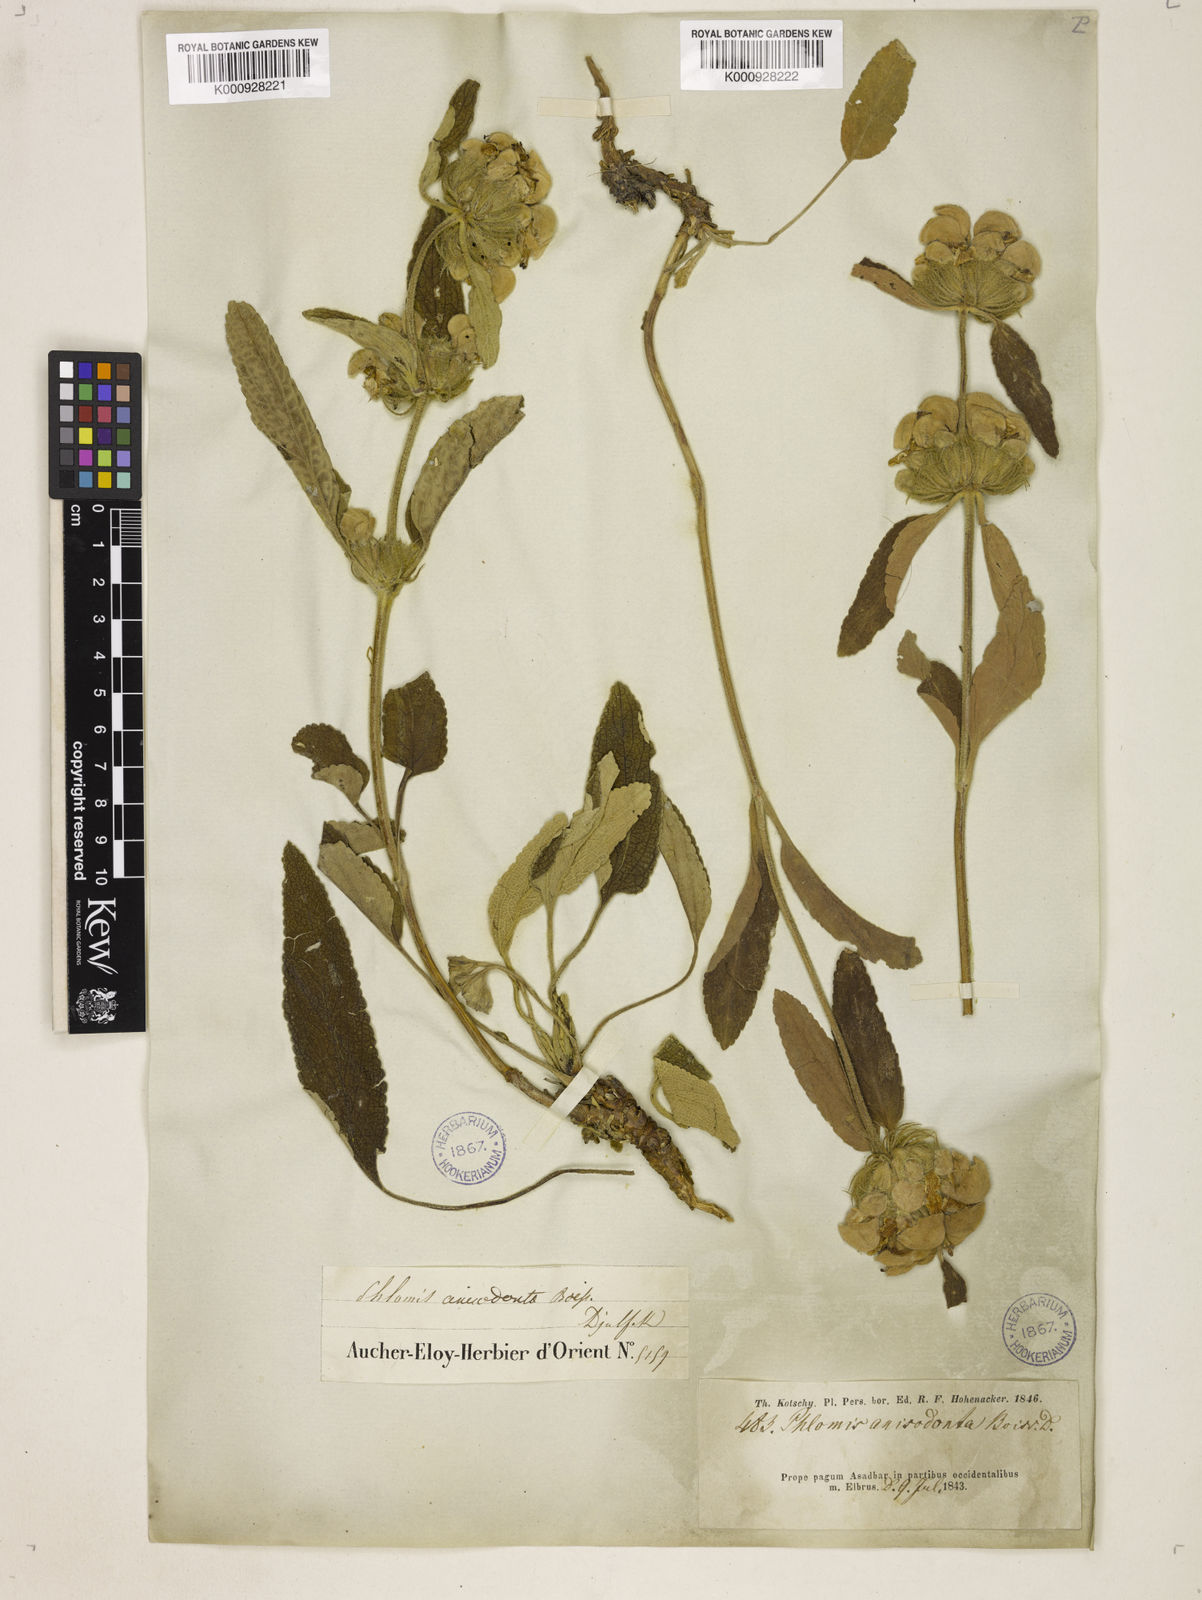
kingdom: Plantae
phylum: Tracheophyta
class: Magnoliopsida
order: Lamiales
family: Lamiaceae
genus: Phlomis
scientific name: Phlomis anisodonta
